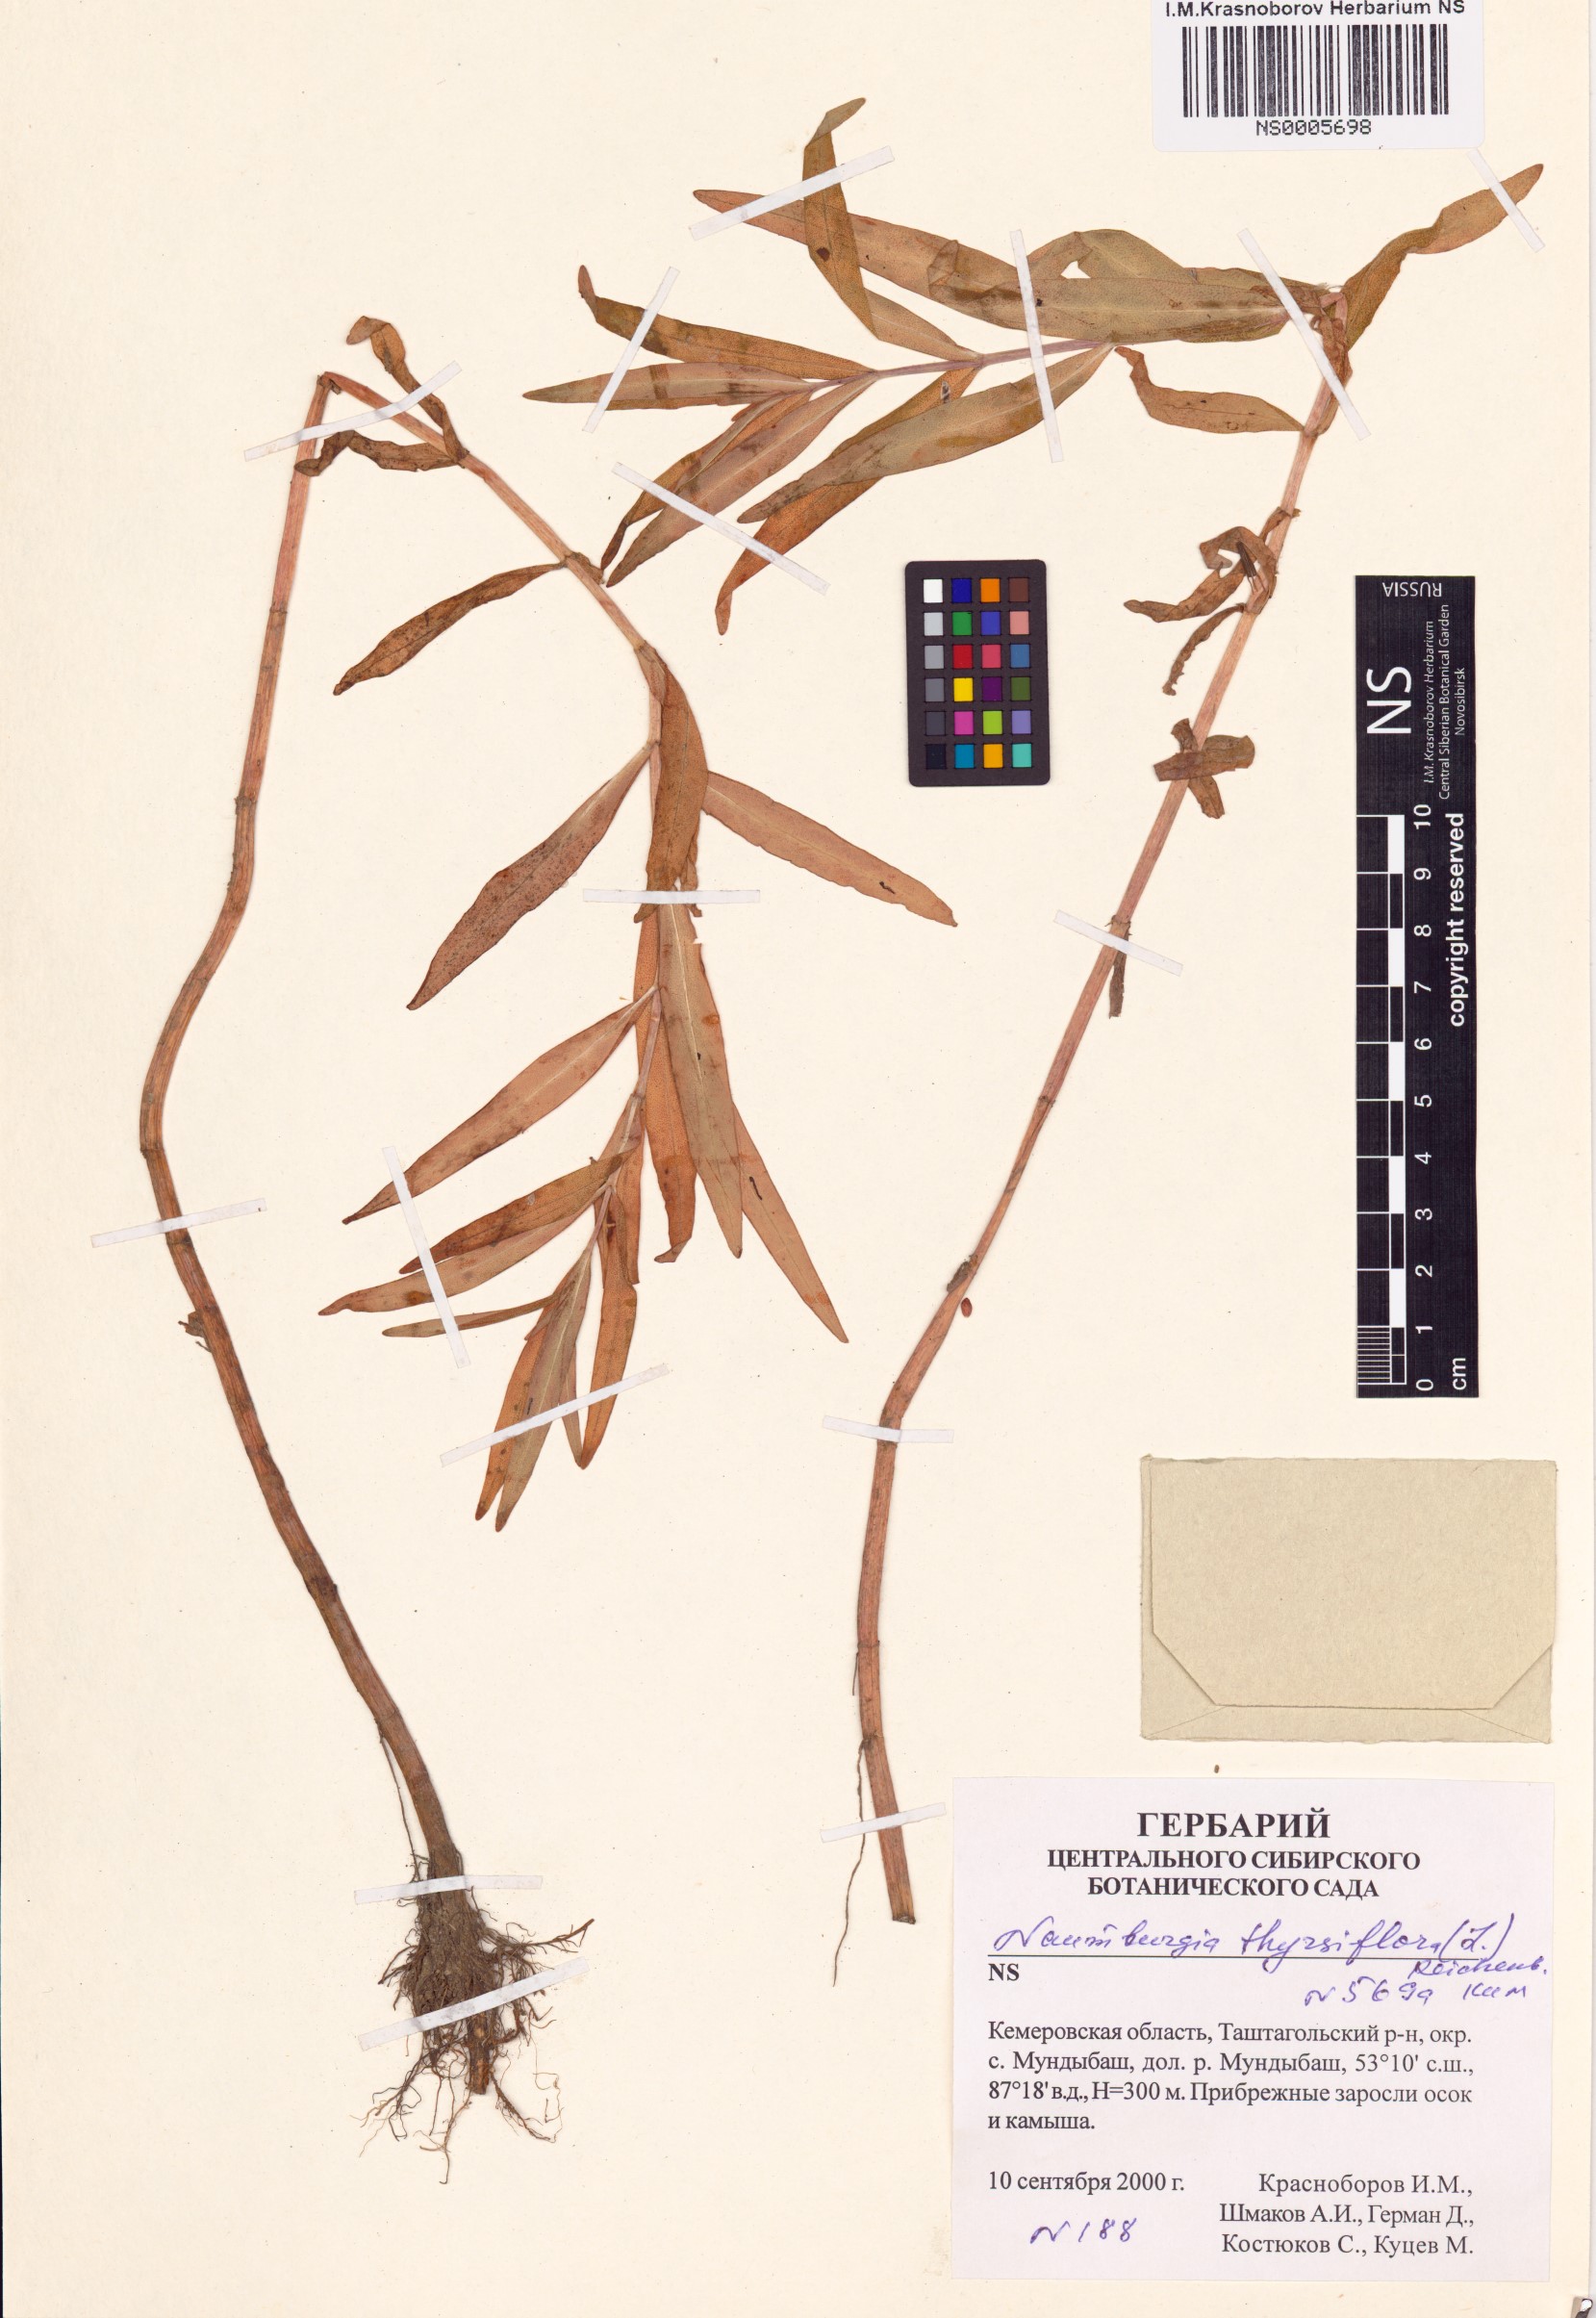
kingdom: Plantae
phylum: Tracheophyta
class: Magnoliopsida
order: Ericales
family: Primulaceae
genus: Lysimachia
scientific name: Lysimachia thyrsiflora
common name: Tufted loosestrife
